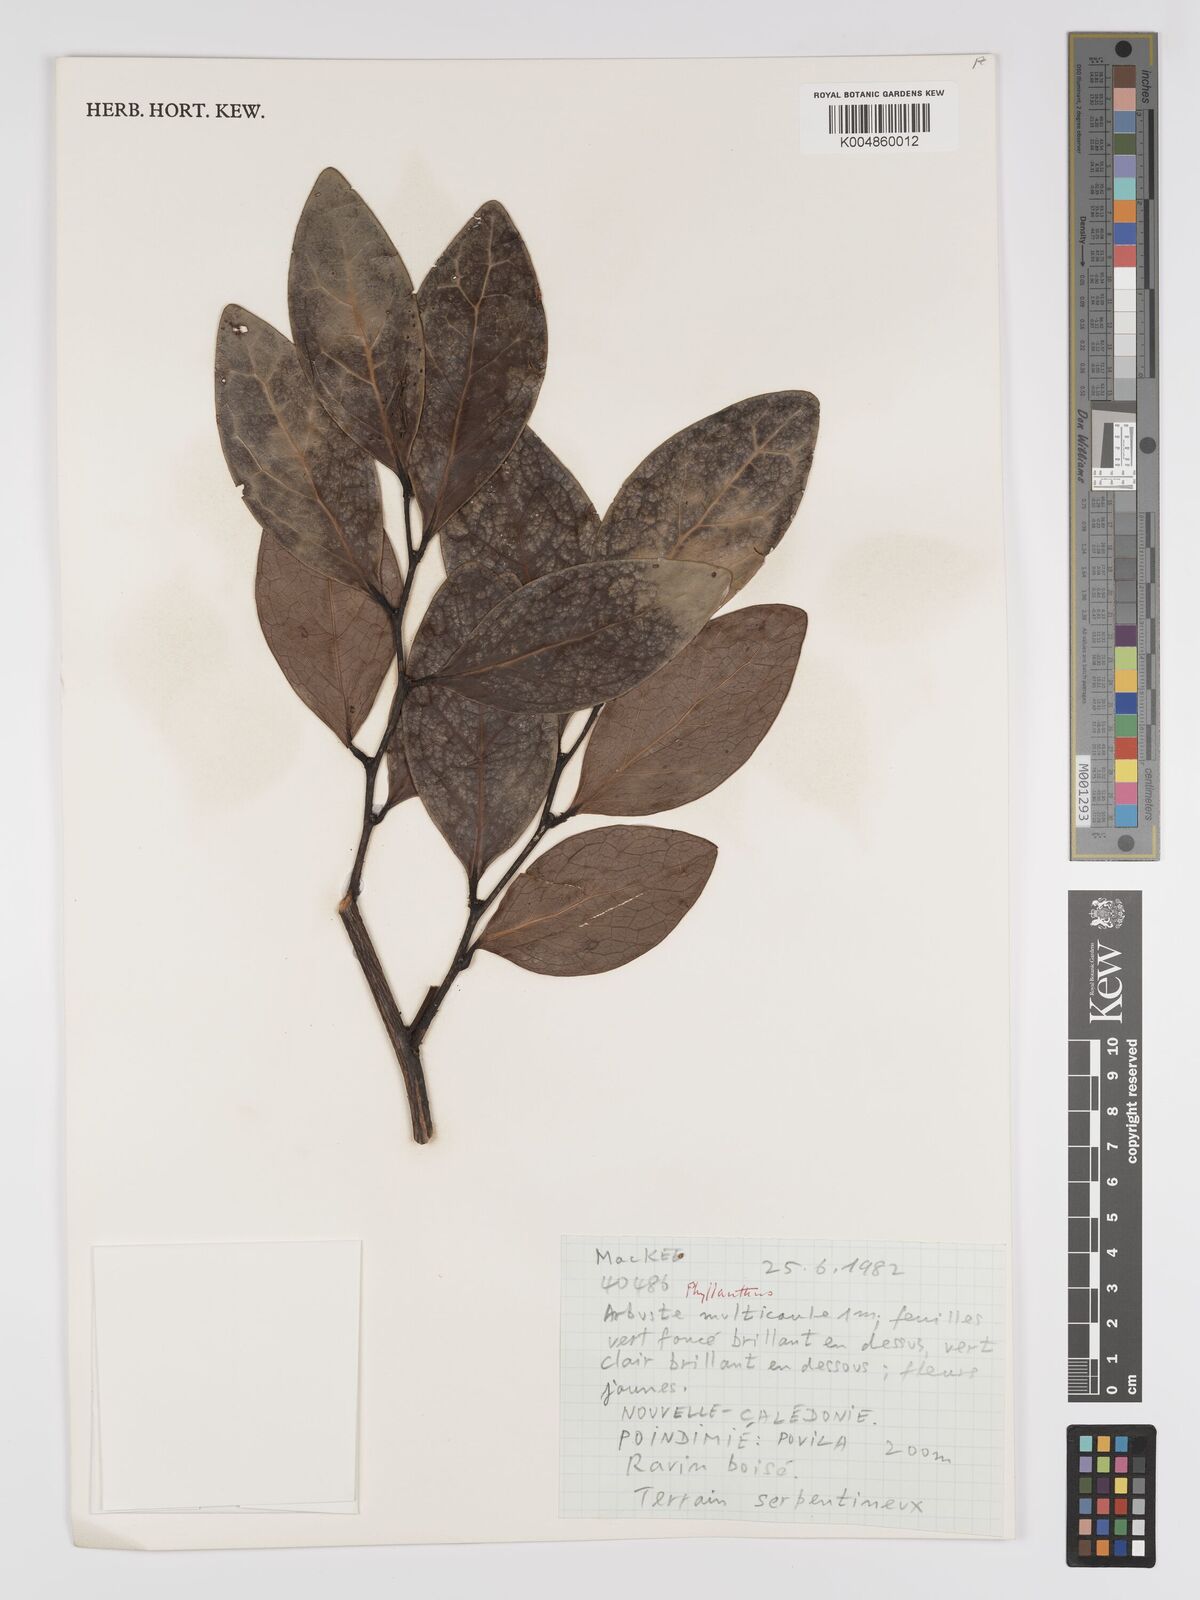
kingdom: Plantae
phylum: Tracheophyta
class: Magnoliopsida
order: Malpighiales
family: Phyllanthaceae
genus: Phyllanthus
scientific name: Phyllanthus
